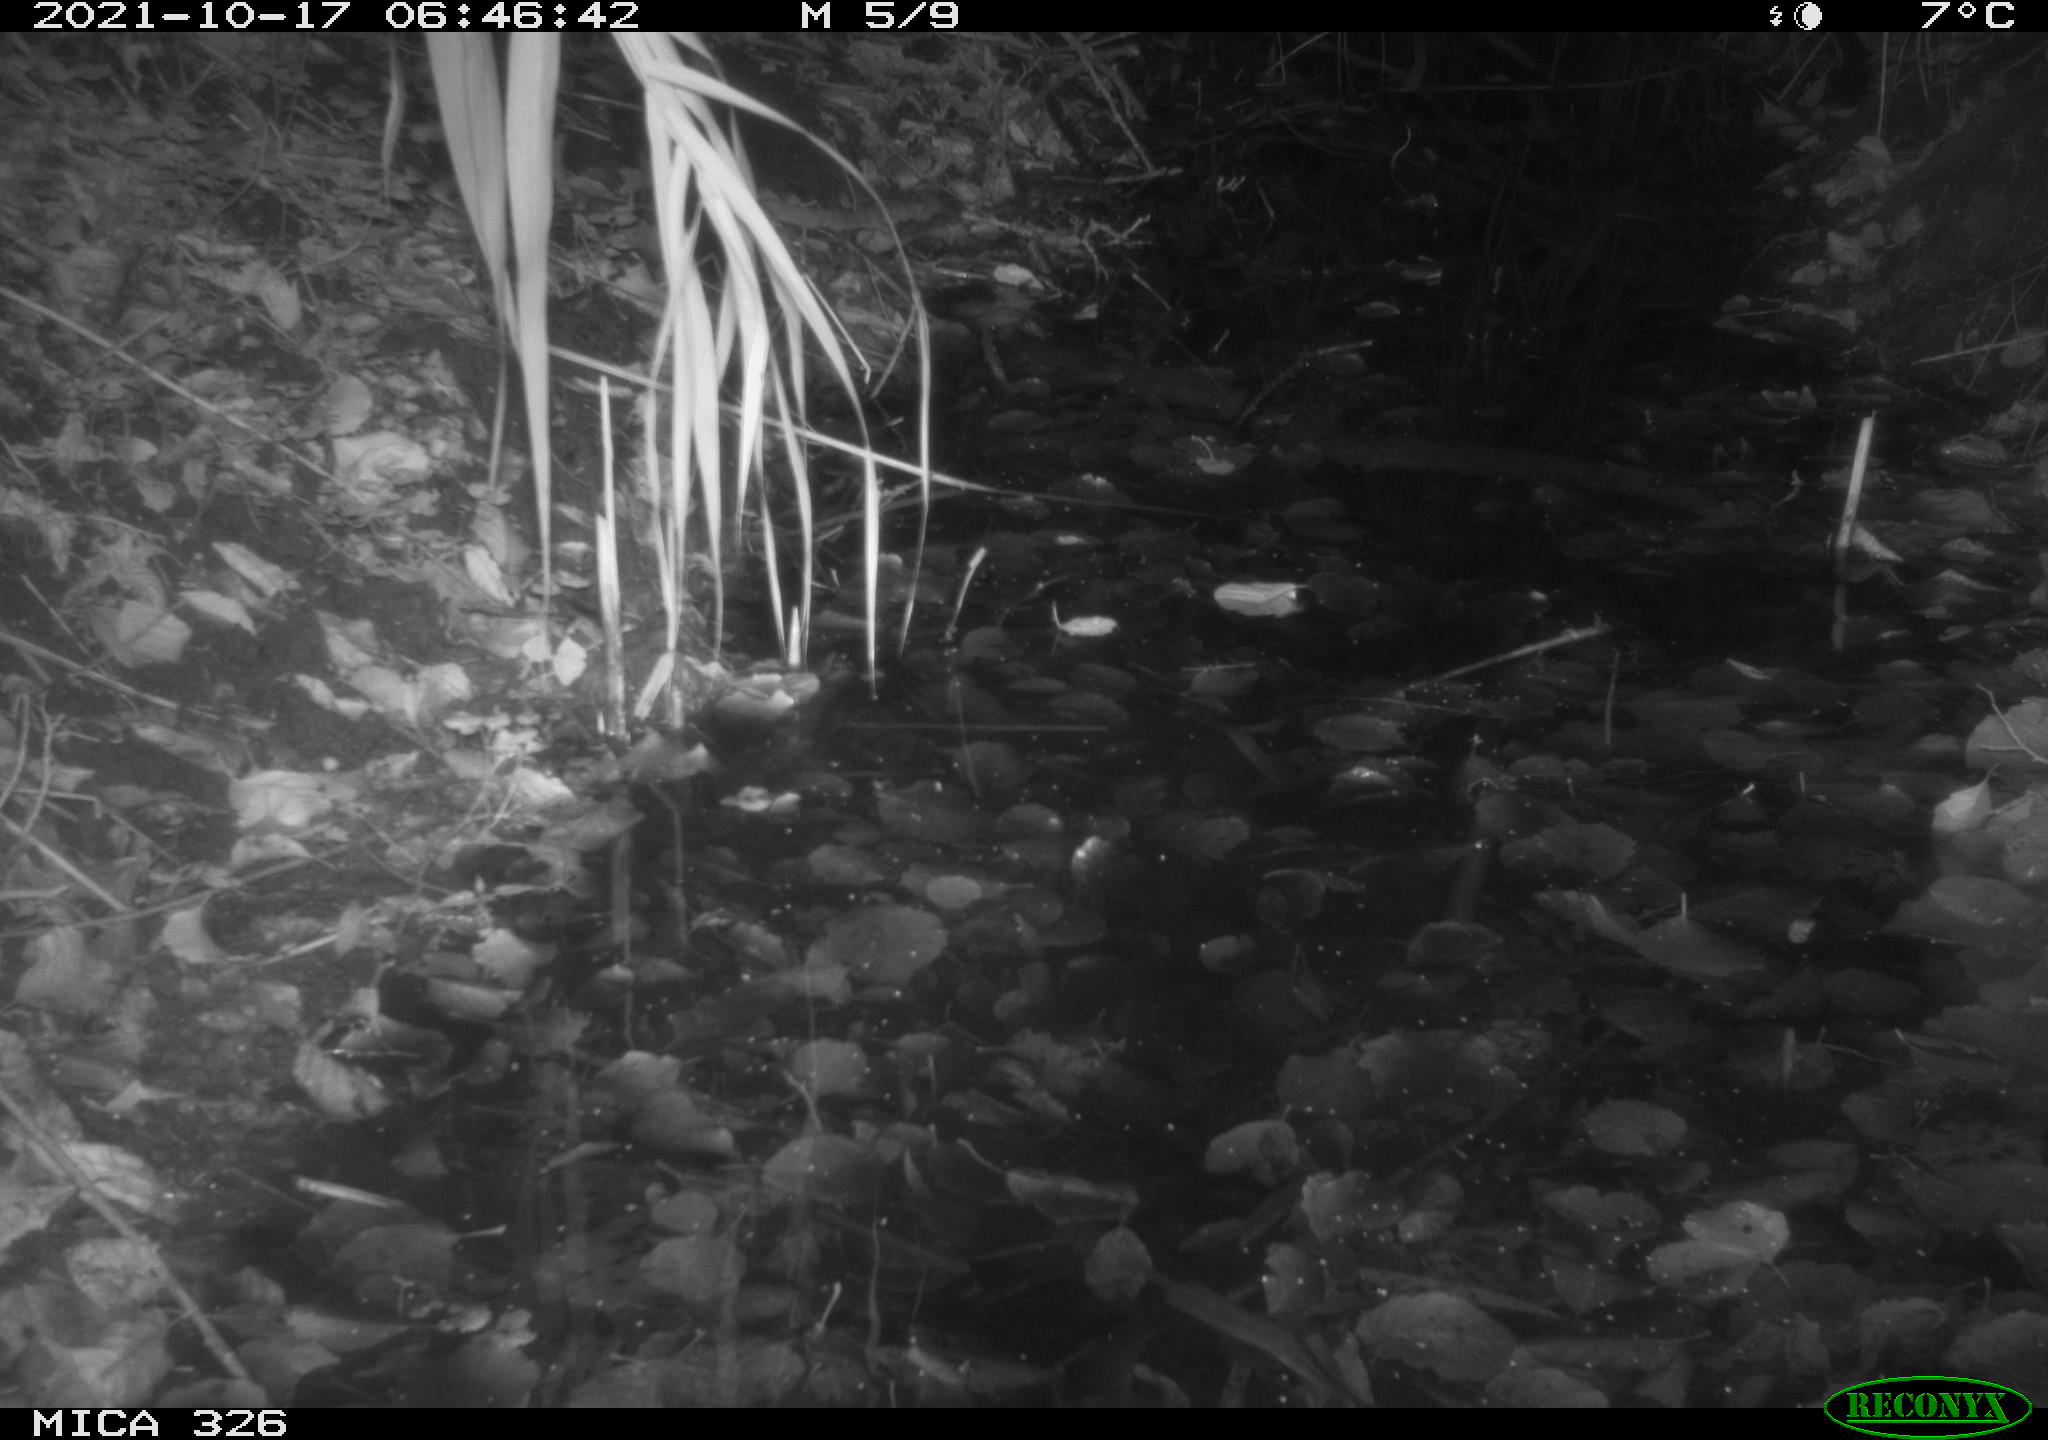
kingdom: Animalia
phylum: Chordata
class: Mammalia
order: Rodentia
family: Muridae
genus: Rattus
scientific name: Rattus norvegicus
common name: Brown rat
